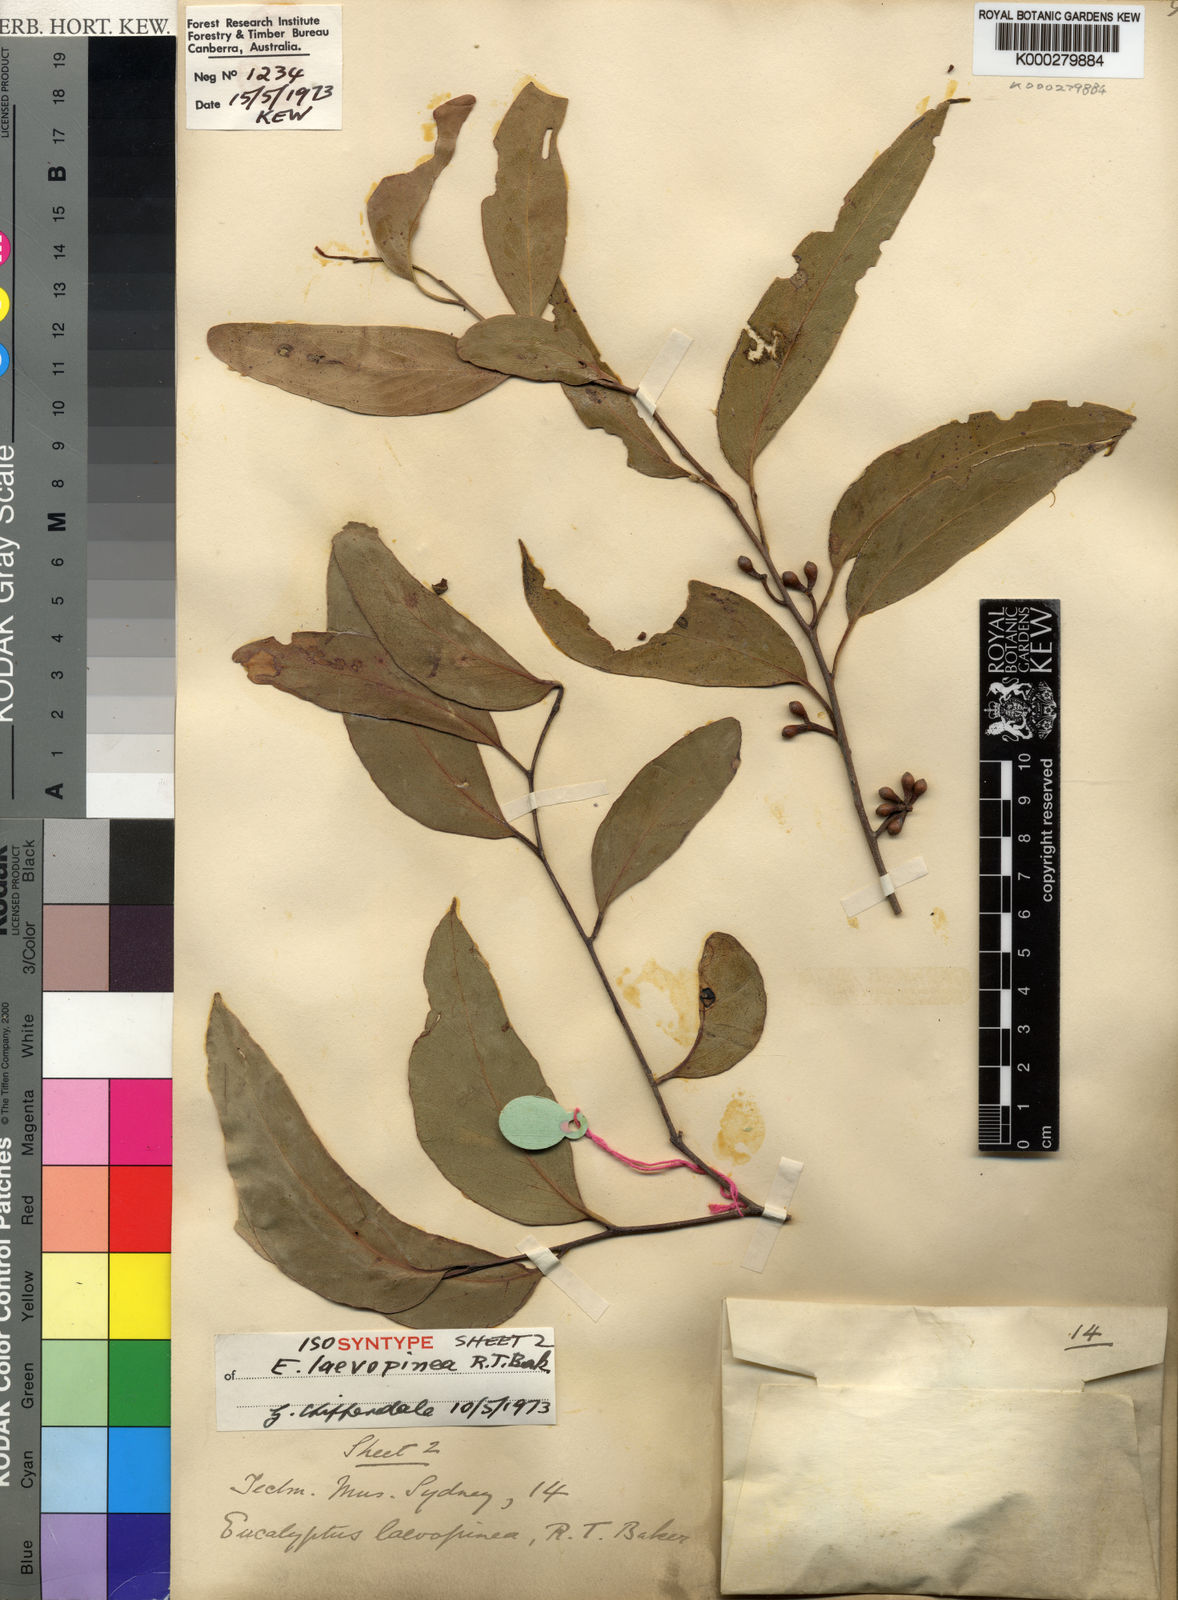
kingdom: Plantae
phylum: Tracheophyta
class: Magnoliopsida
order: Myrtales
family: Myrtaceae
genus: Eucalyptus
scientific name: Eucalyptus laevopinea
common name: Silvertop stringybark
